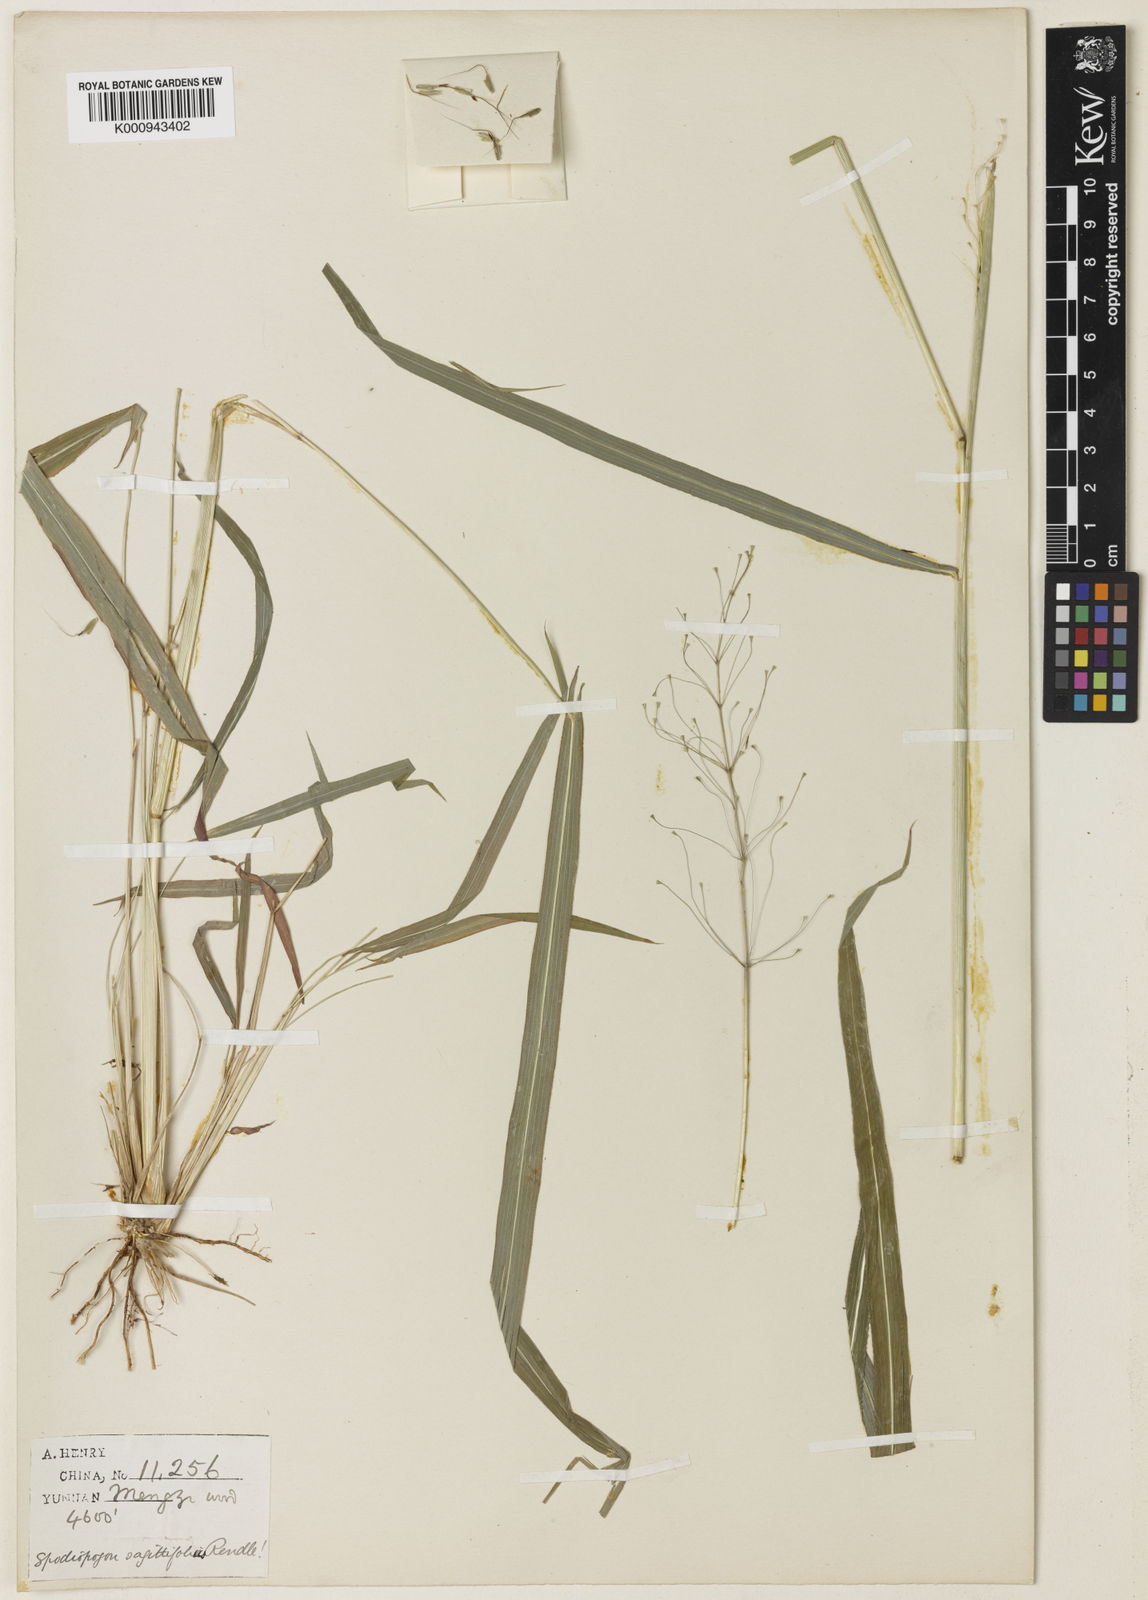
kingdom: Plantae
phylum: Tracheophyta
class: Liliopsida
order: Poales
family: Poaceae
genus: Spodiopogon
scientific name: Spodiopogon sagittifolius
